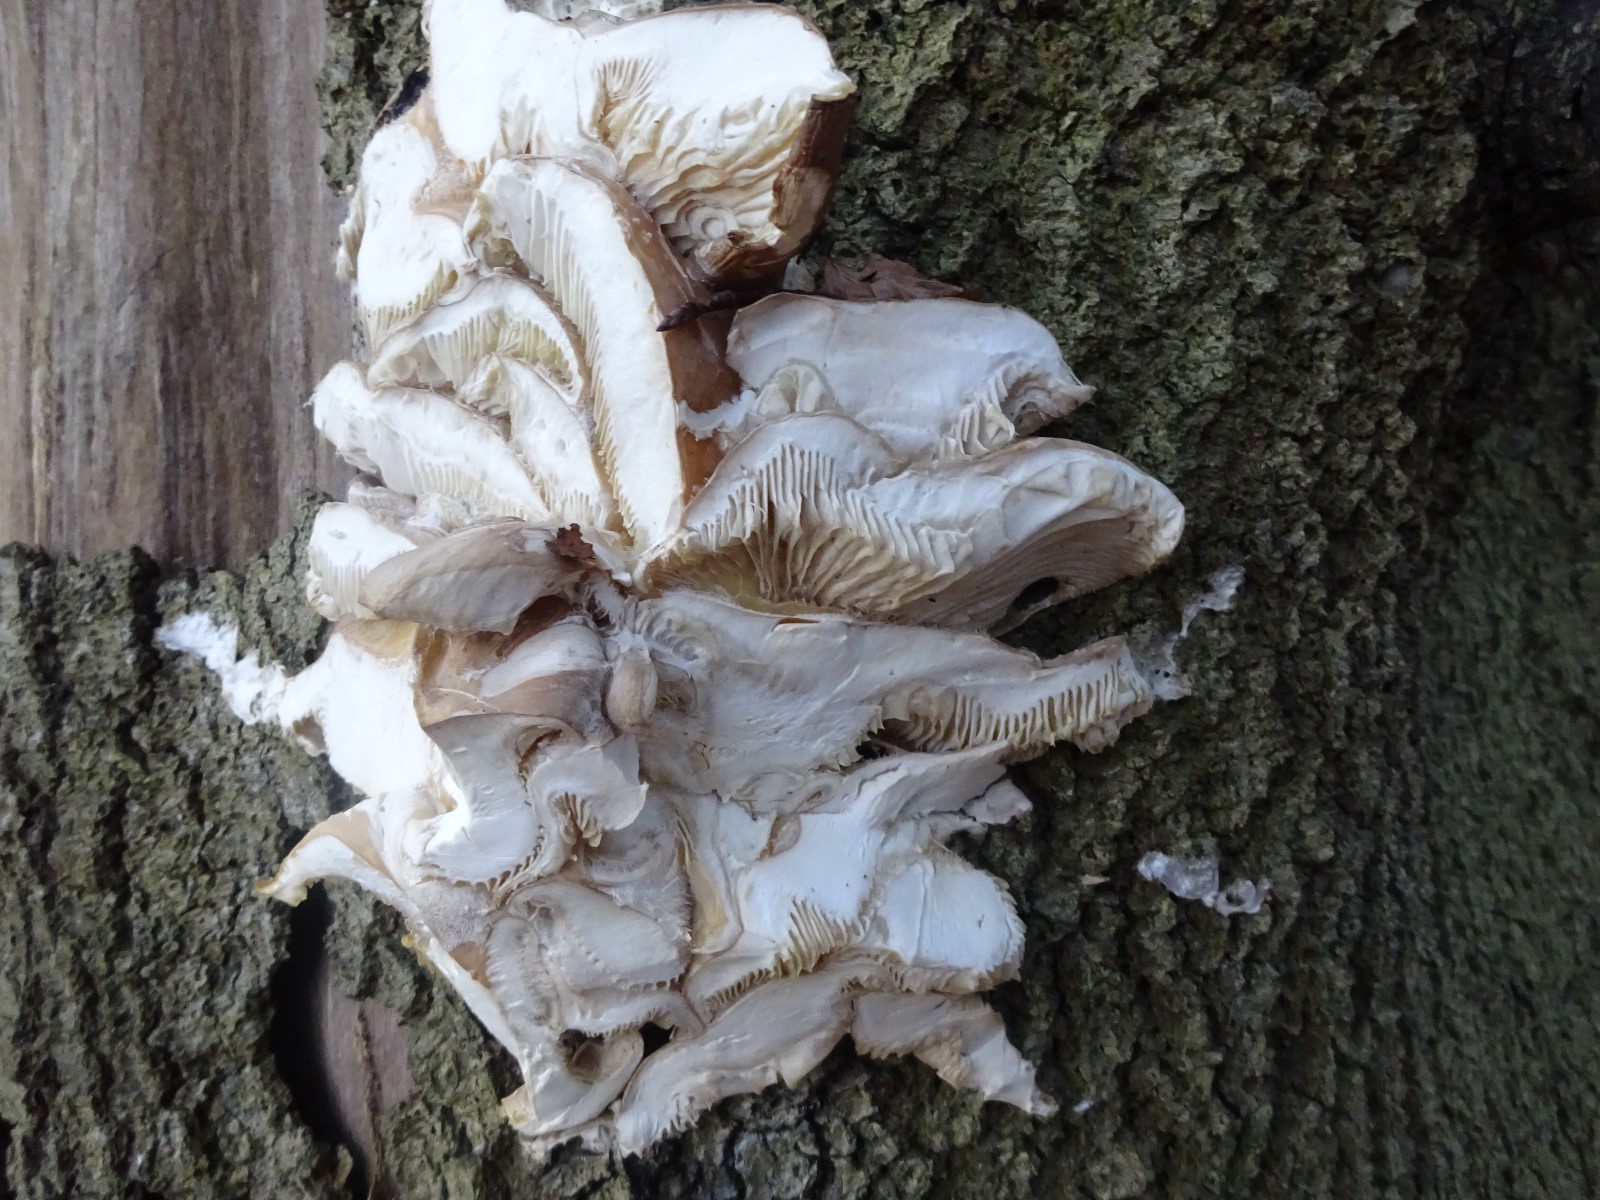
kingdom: Fungi
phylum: Basidiomycota
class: Agaricomycetes
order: Agaricales
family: Pleurotaceae
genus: Pleurotus
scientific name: Pleurotus ostreatus
